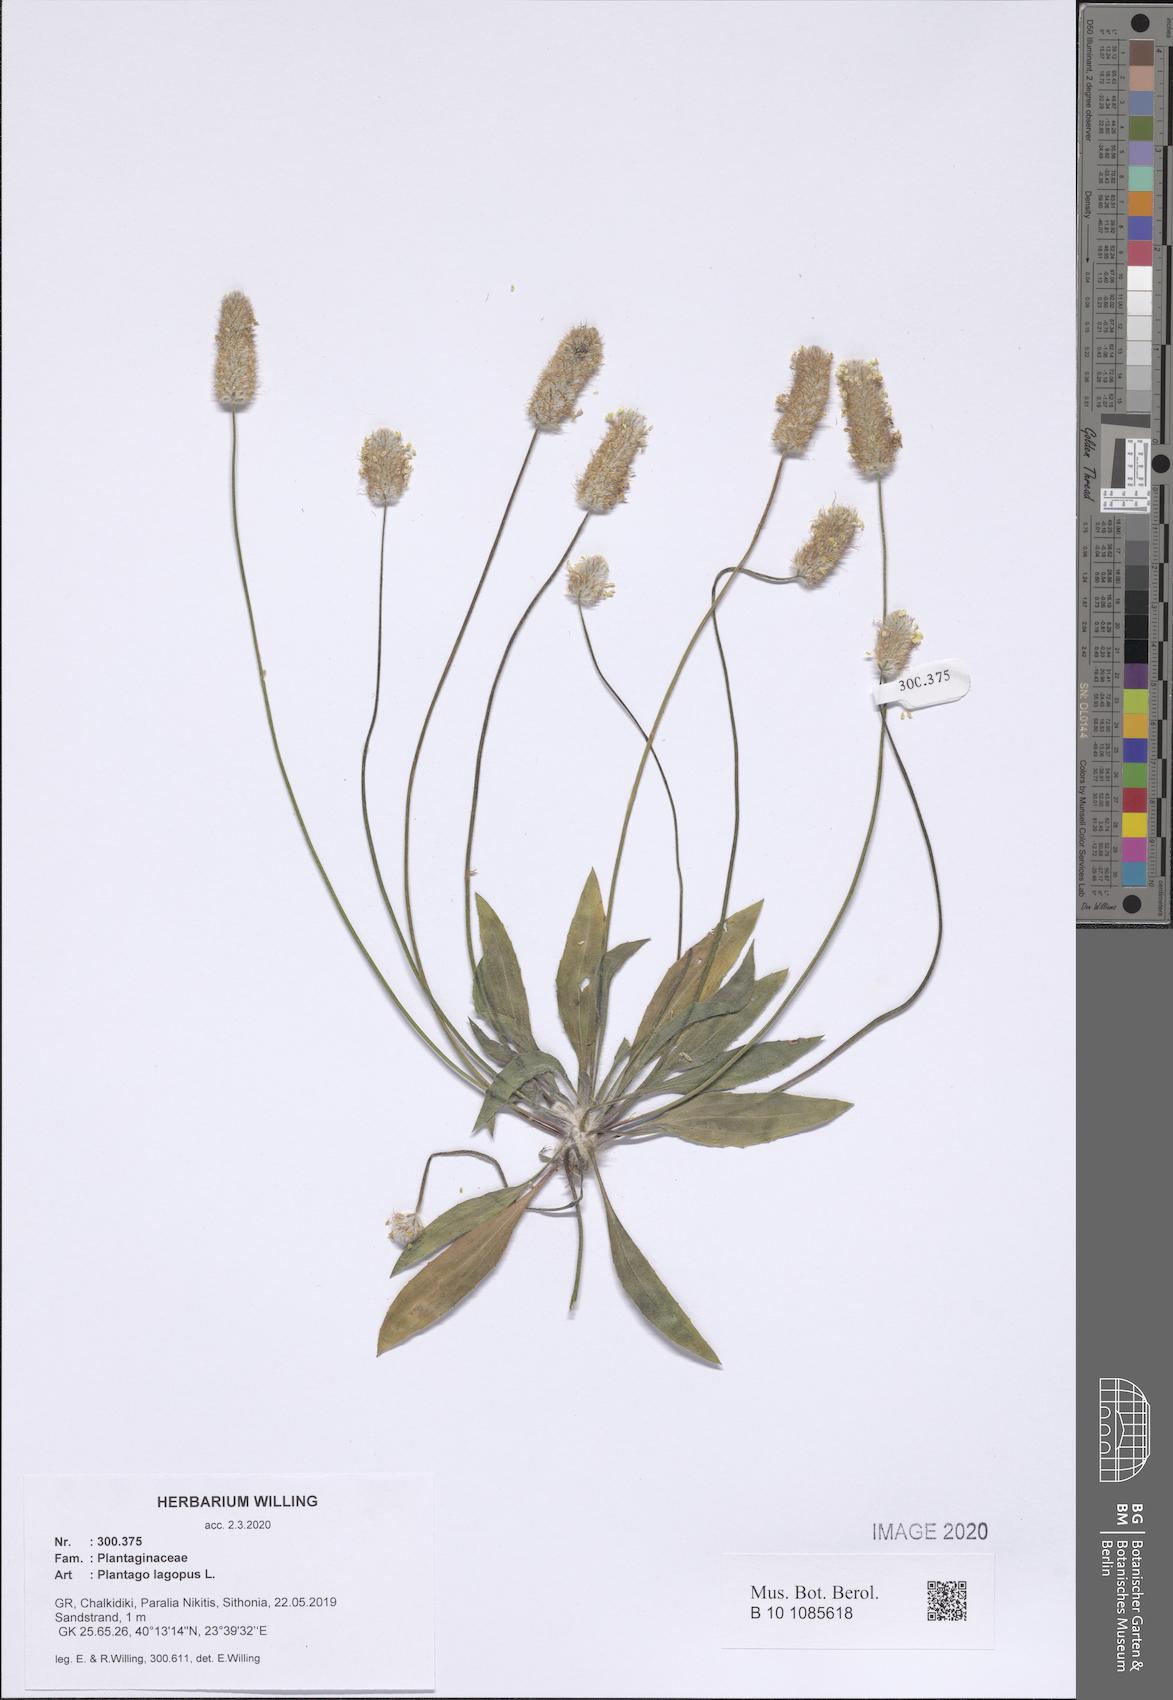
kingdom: Plantae
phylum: Tracheophyta
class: Magnoliopsida
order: Lamiales
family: Plantaginaceae
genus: Plantago
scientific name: Plantago lagopus
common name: Hare-foot plantain
